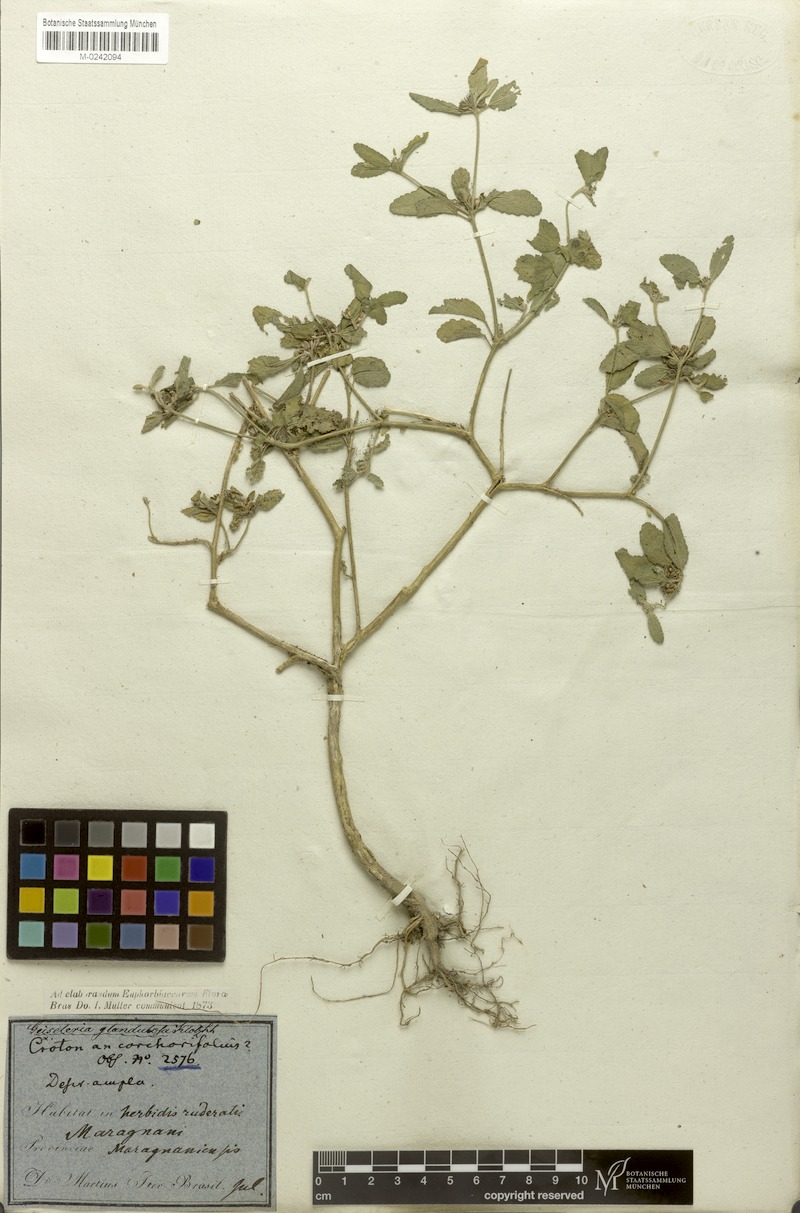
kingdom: Plantae
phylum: Tracheophyta
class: Magnoliopsida
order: Malpighiales
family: Euphorbiaceae
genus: Croton
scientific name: Croton glandulosus
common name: Tropic croton
